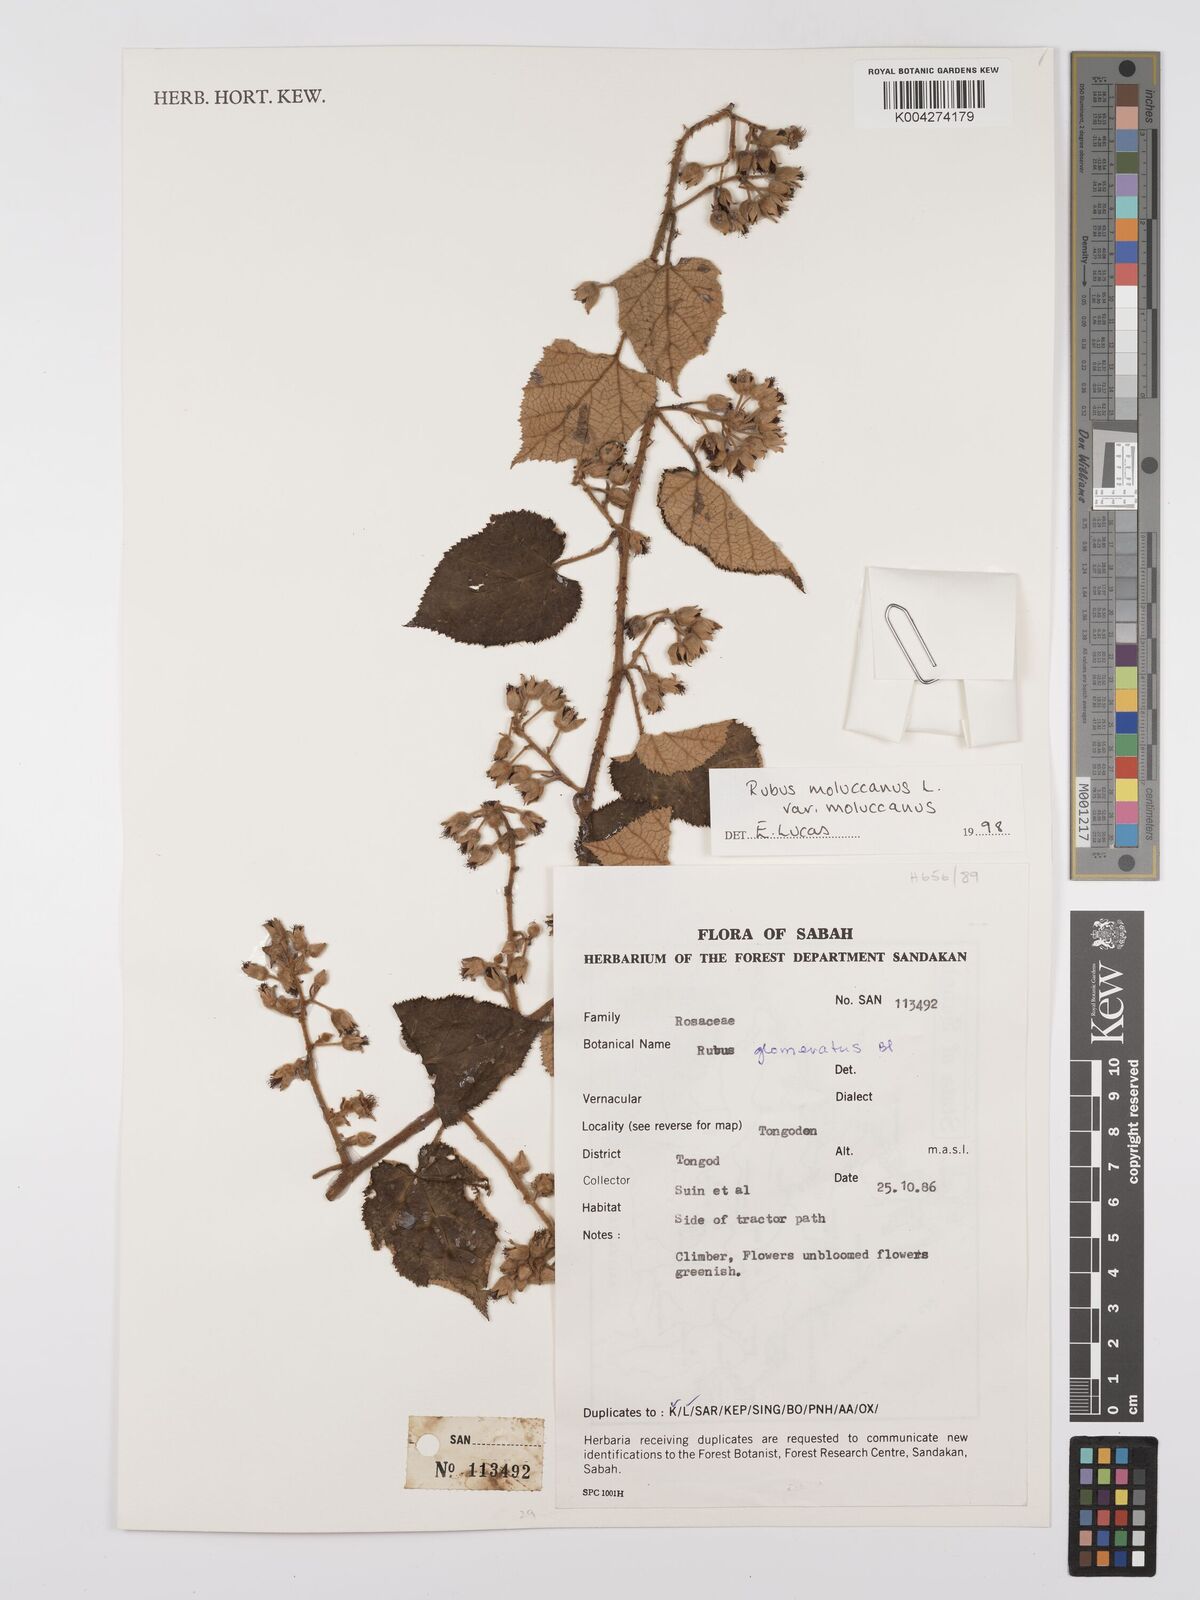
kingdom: Plantae
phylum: Tracheophyta
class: Magnoliopsida
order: Rosales
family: Rosaceae
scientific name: Rosaceae
